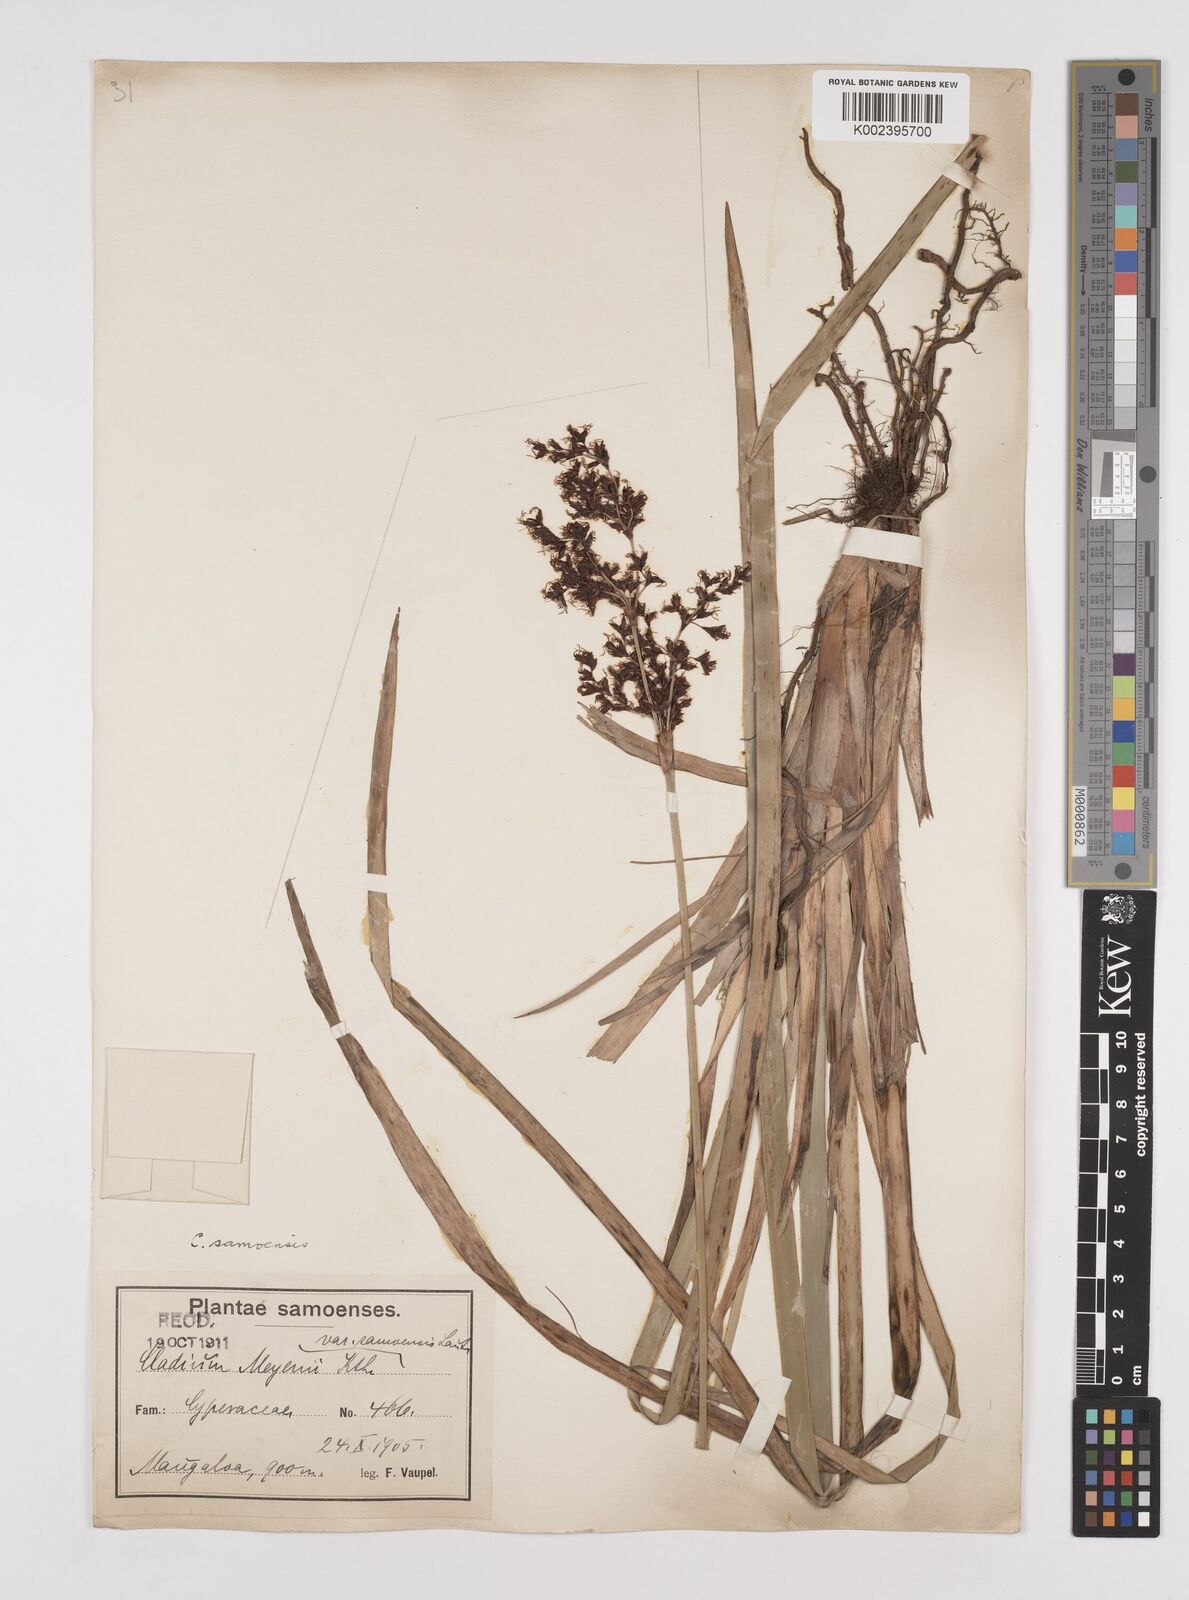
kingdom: Plantae
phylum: Tracheophyta
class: Liliopsida
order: Poales
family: Cyperaceae
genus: Machaerina
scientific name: Machaerina falcata
